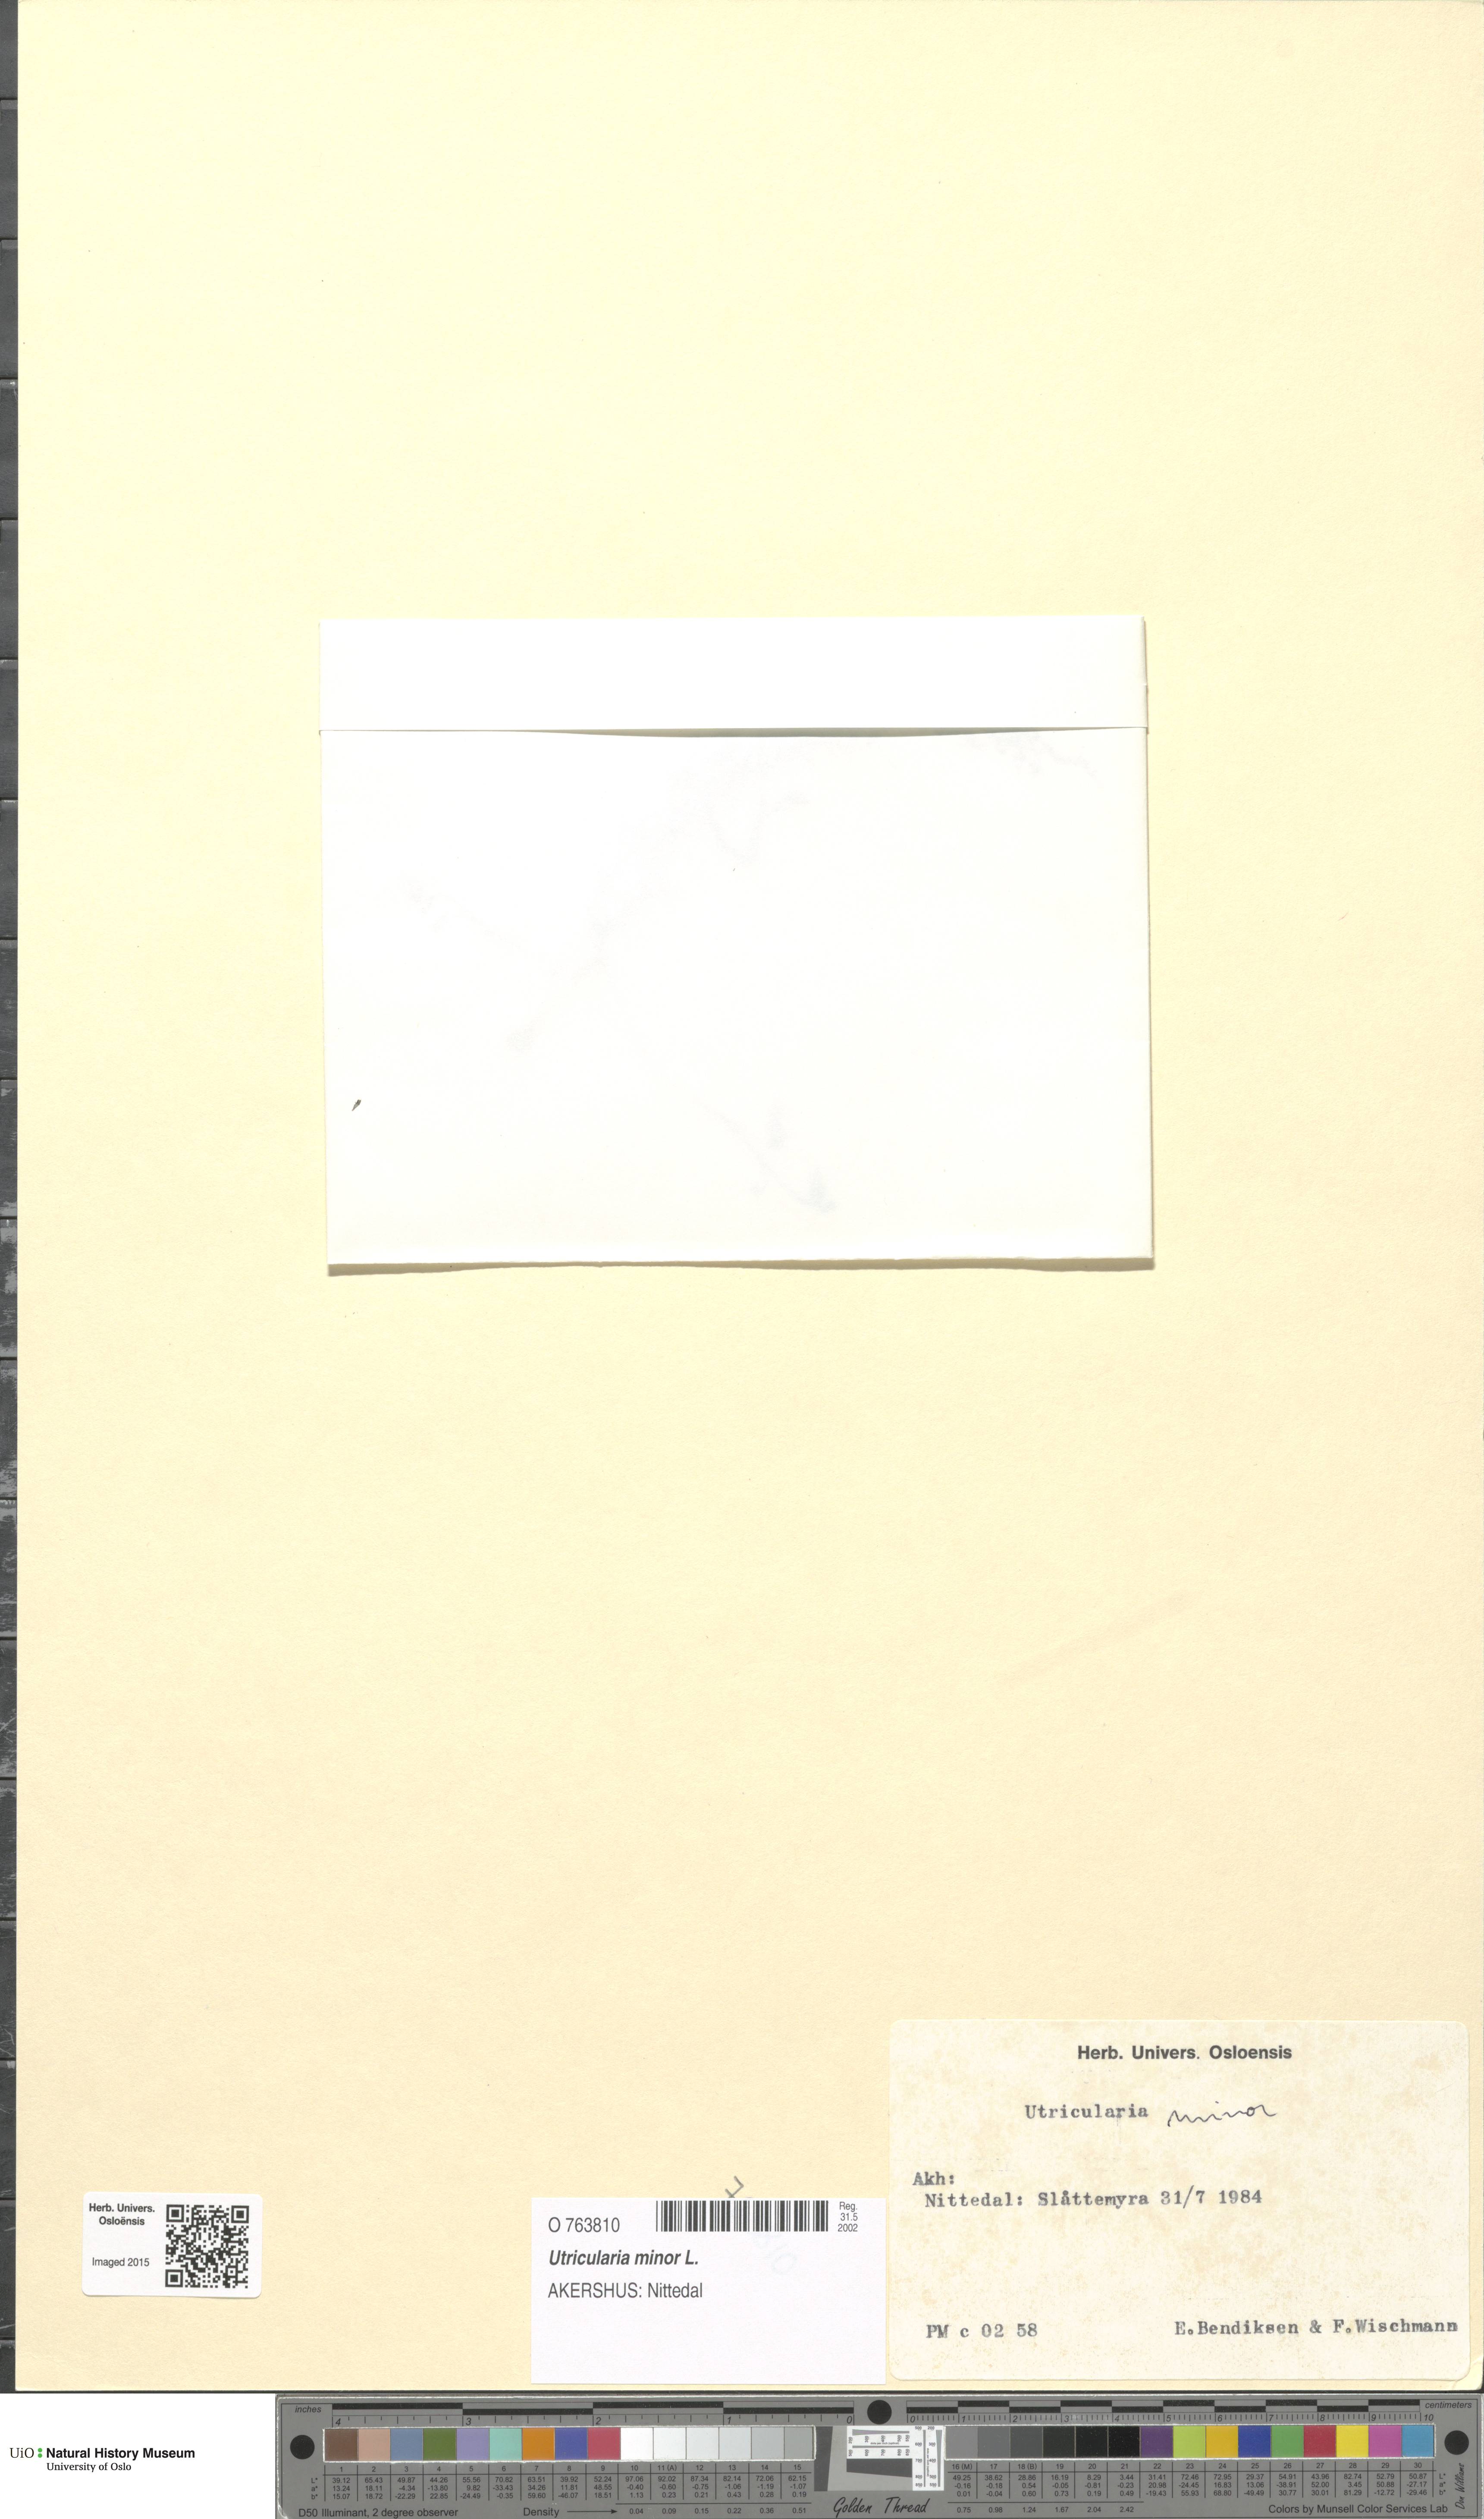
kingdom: Plantae
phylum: Tracheophyta
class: Magnoliopsida
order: Lamiales
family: Lentibulariaceae
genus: Utricularia
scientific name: Utricularia minor
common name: Lesser bladderwort
